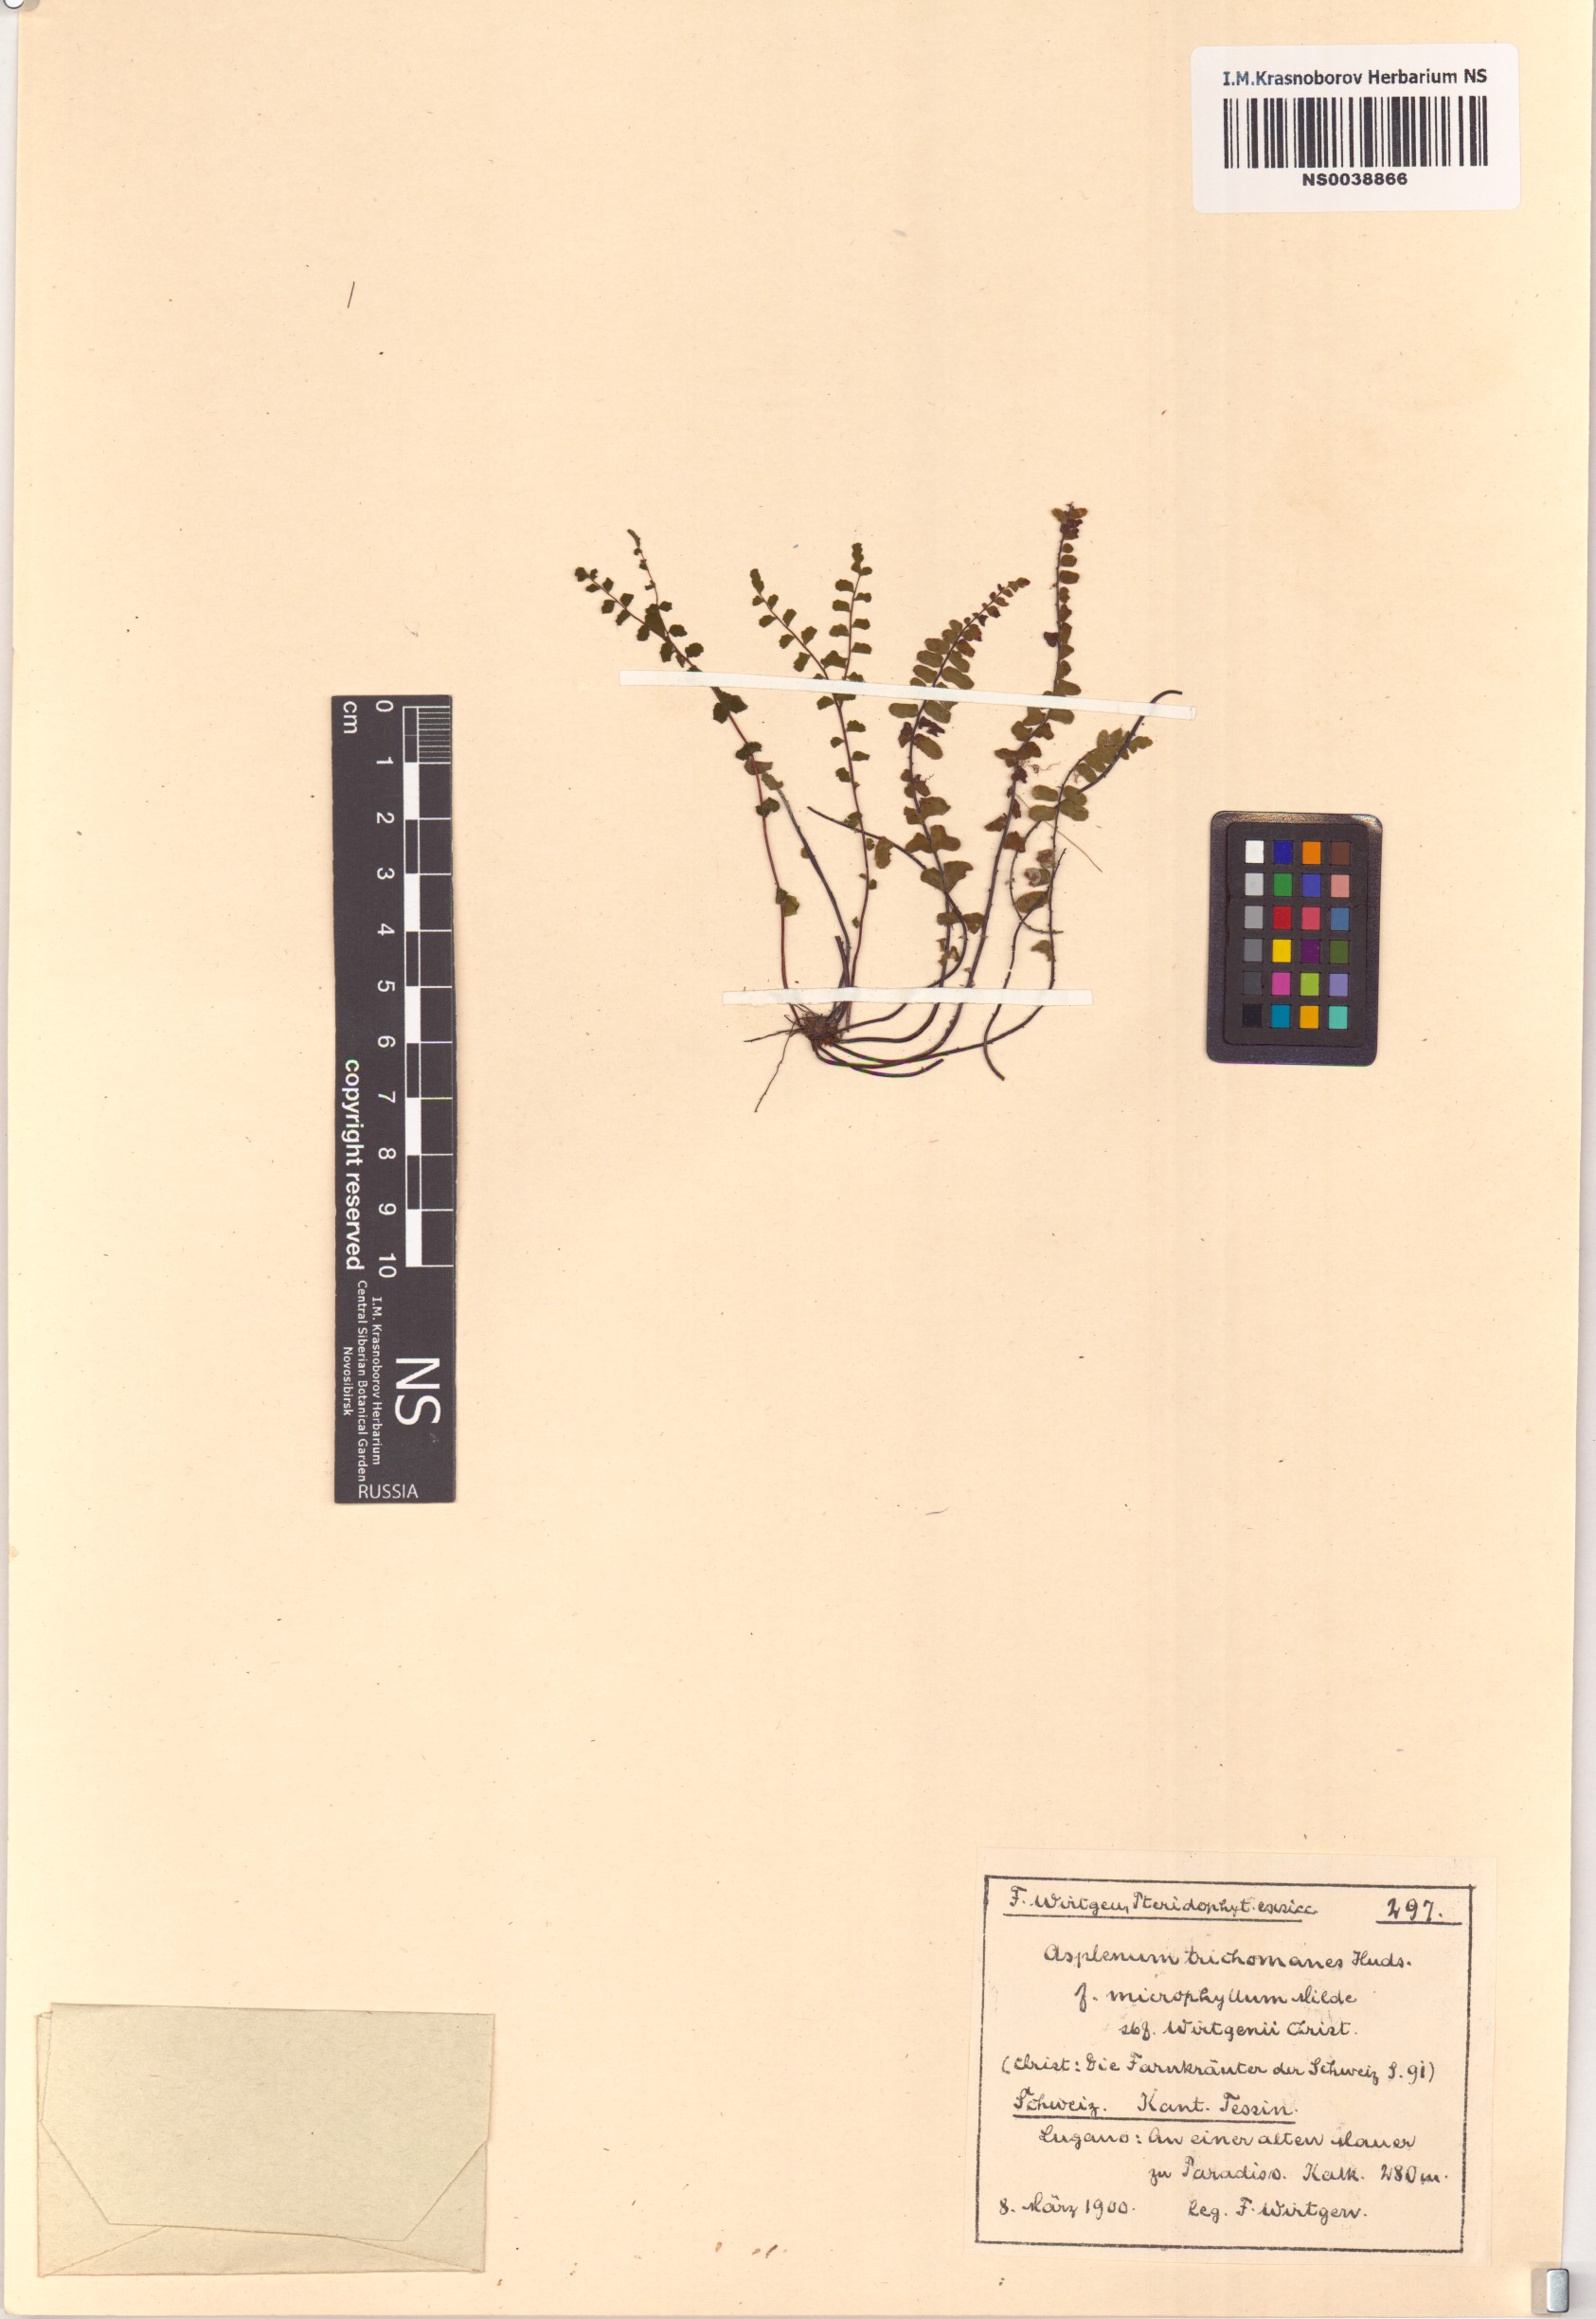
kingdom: Plantae
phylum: Tracheophyta
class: Polypodiopsida
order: Polypodiales
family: Aspleniaceae
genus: Asplenium
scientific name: Asplenium trichomanes
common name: Maidenhair spleenwort
